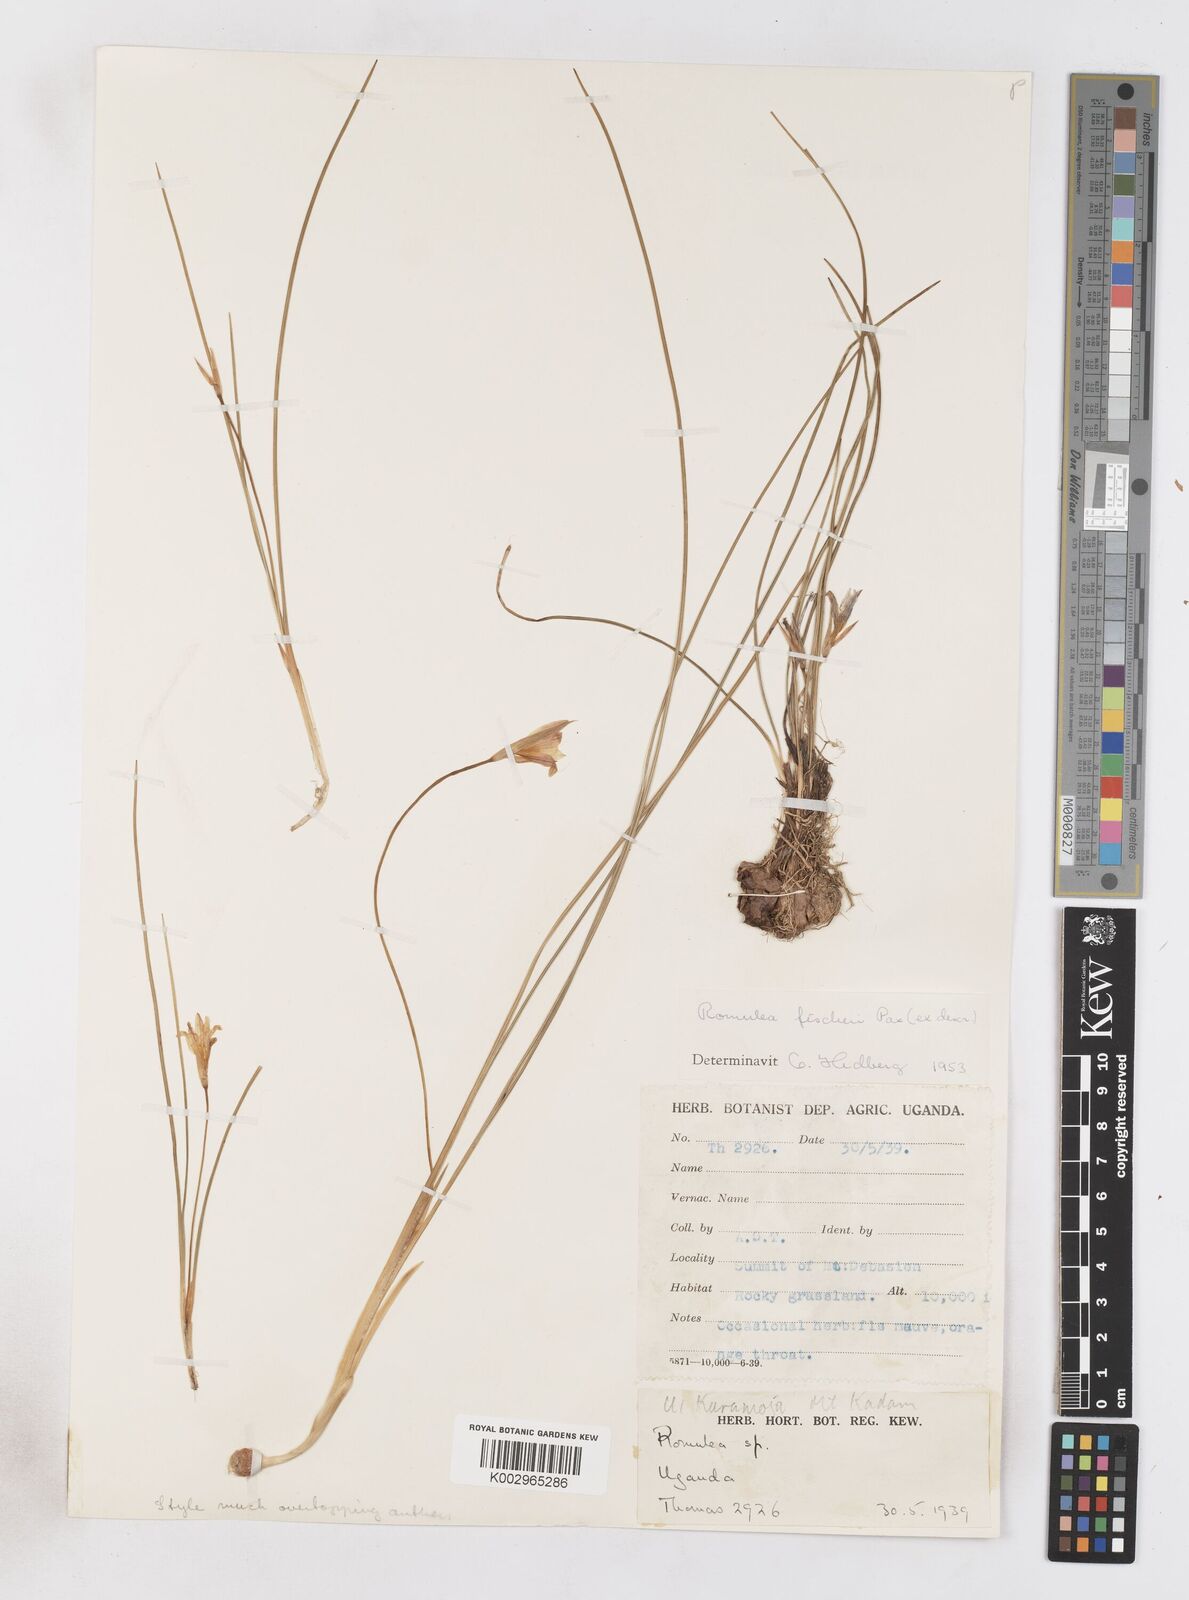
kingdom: Plantae
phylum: Tracheophyta
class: Liliopsida
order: Asparagales
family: Iridaceae
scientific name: Iridaceae
